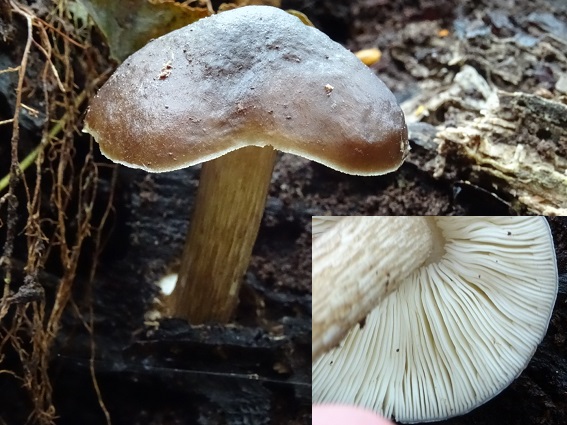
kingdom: Fungi
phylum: Basidiomycota
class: Agaricomycetes
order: Agaricales
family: Pluteaceae
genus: Pluteus
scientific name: Pluteus cervinus
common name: sodfarvet skærmhat
